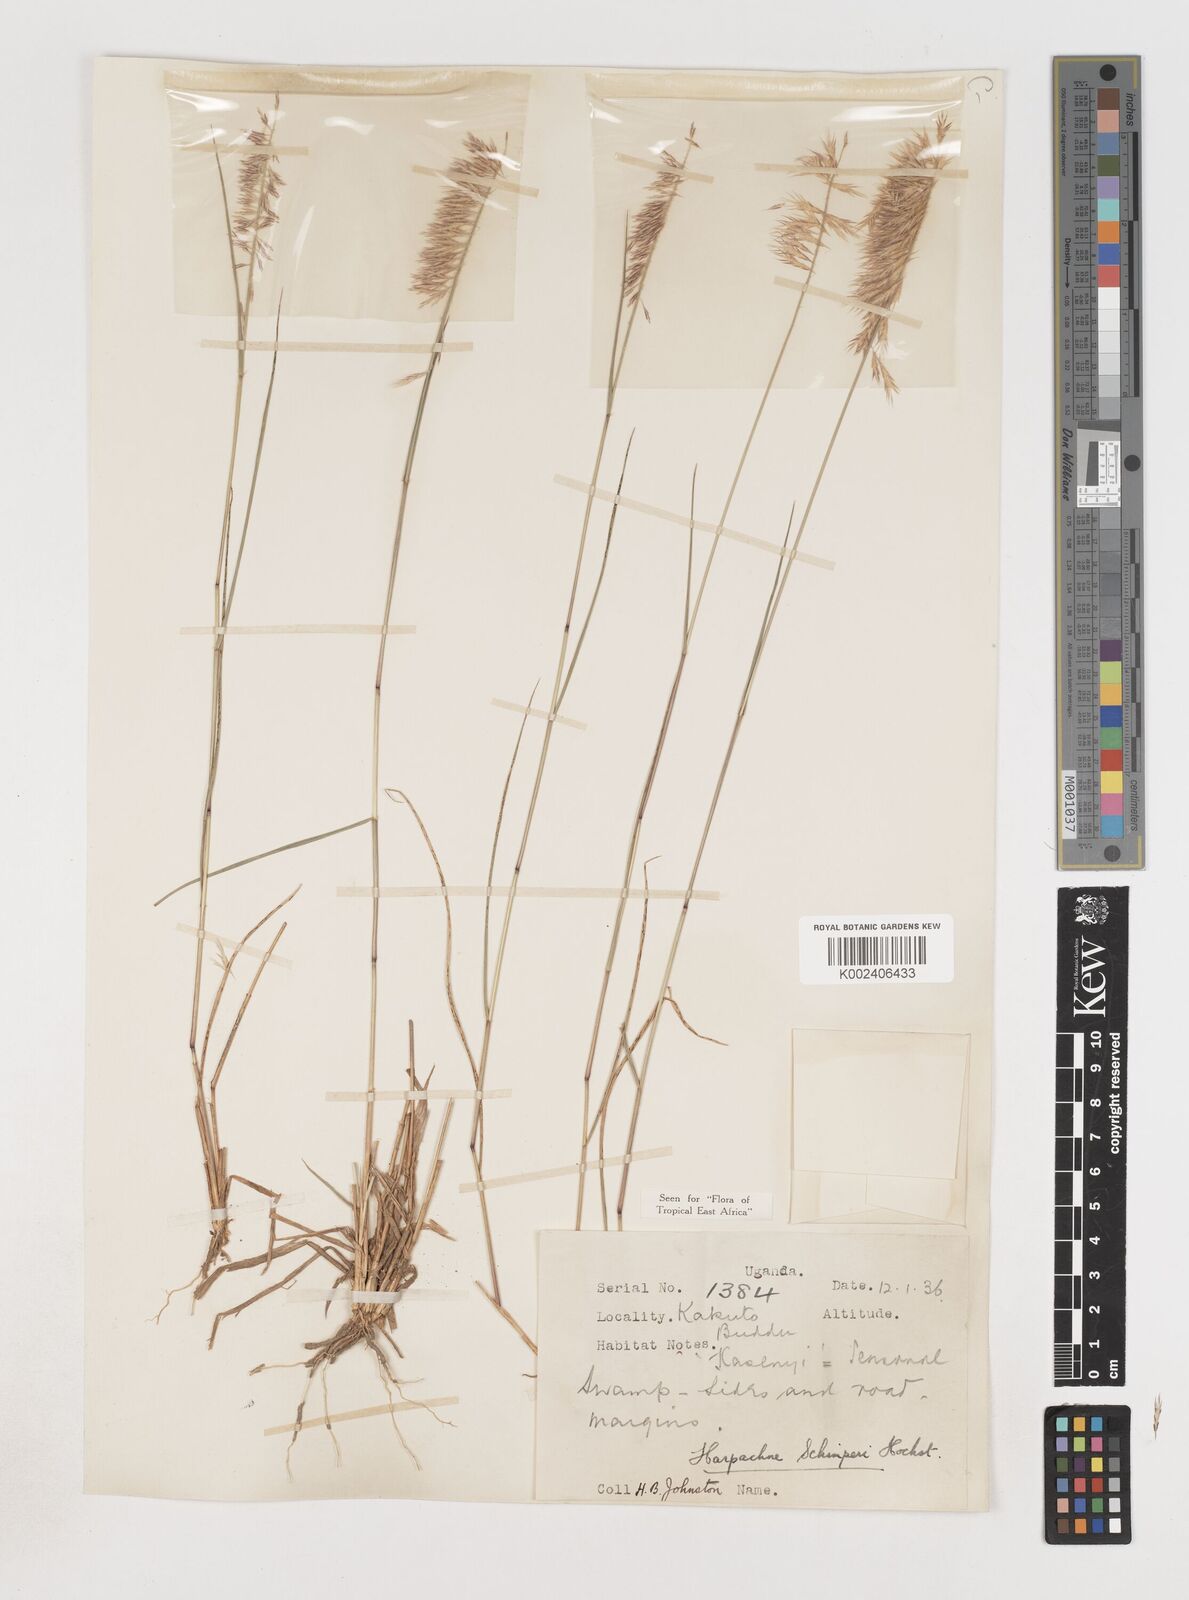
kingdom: Plantae
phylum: Tracheophyta
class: Liliopsida
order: Poales
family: Poaceae
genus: Harpachne
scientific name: Harpachne schimperi
